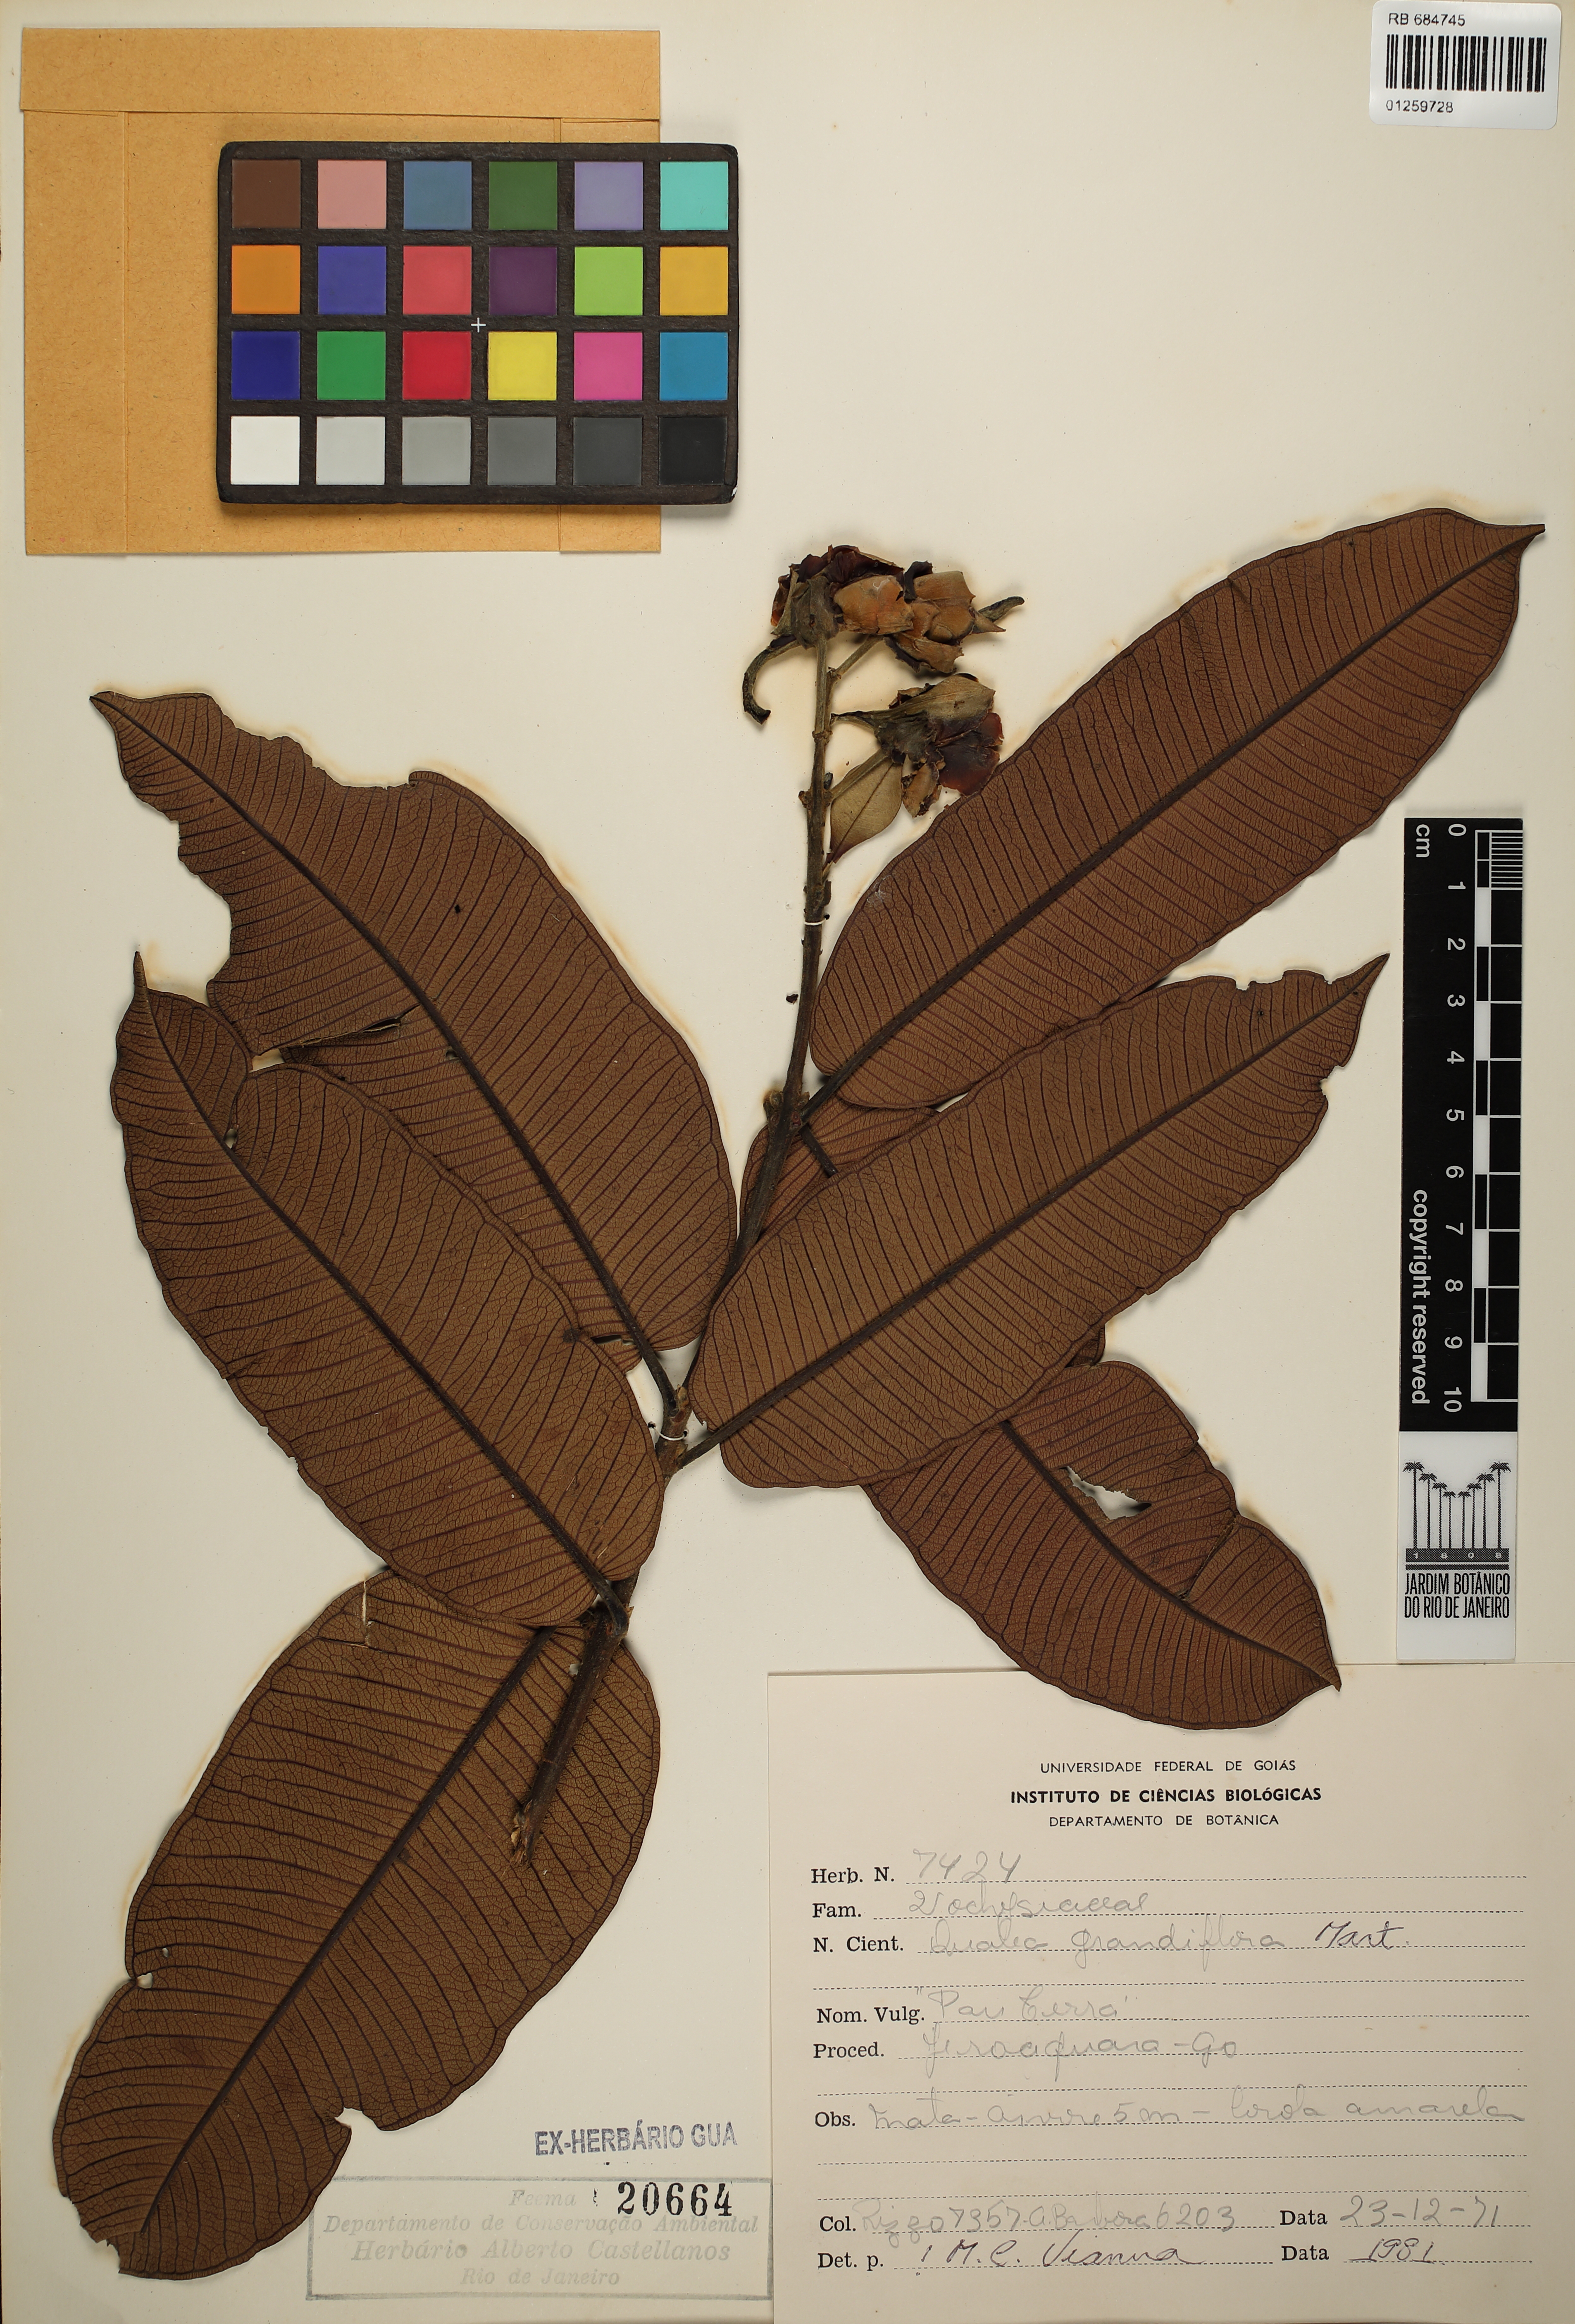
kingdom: Plantae
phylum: Tracheophyta
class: Magnoliopsida
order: Myrtales
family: Vochysiaceae
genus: Qualea
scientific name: Qualea grandiflora
